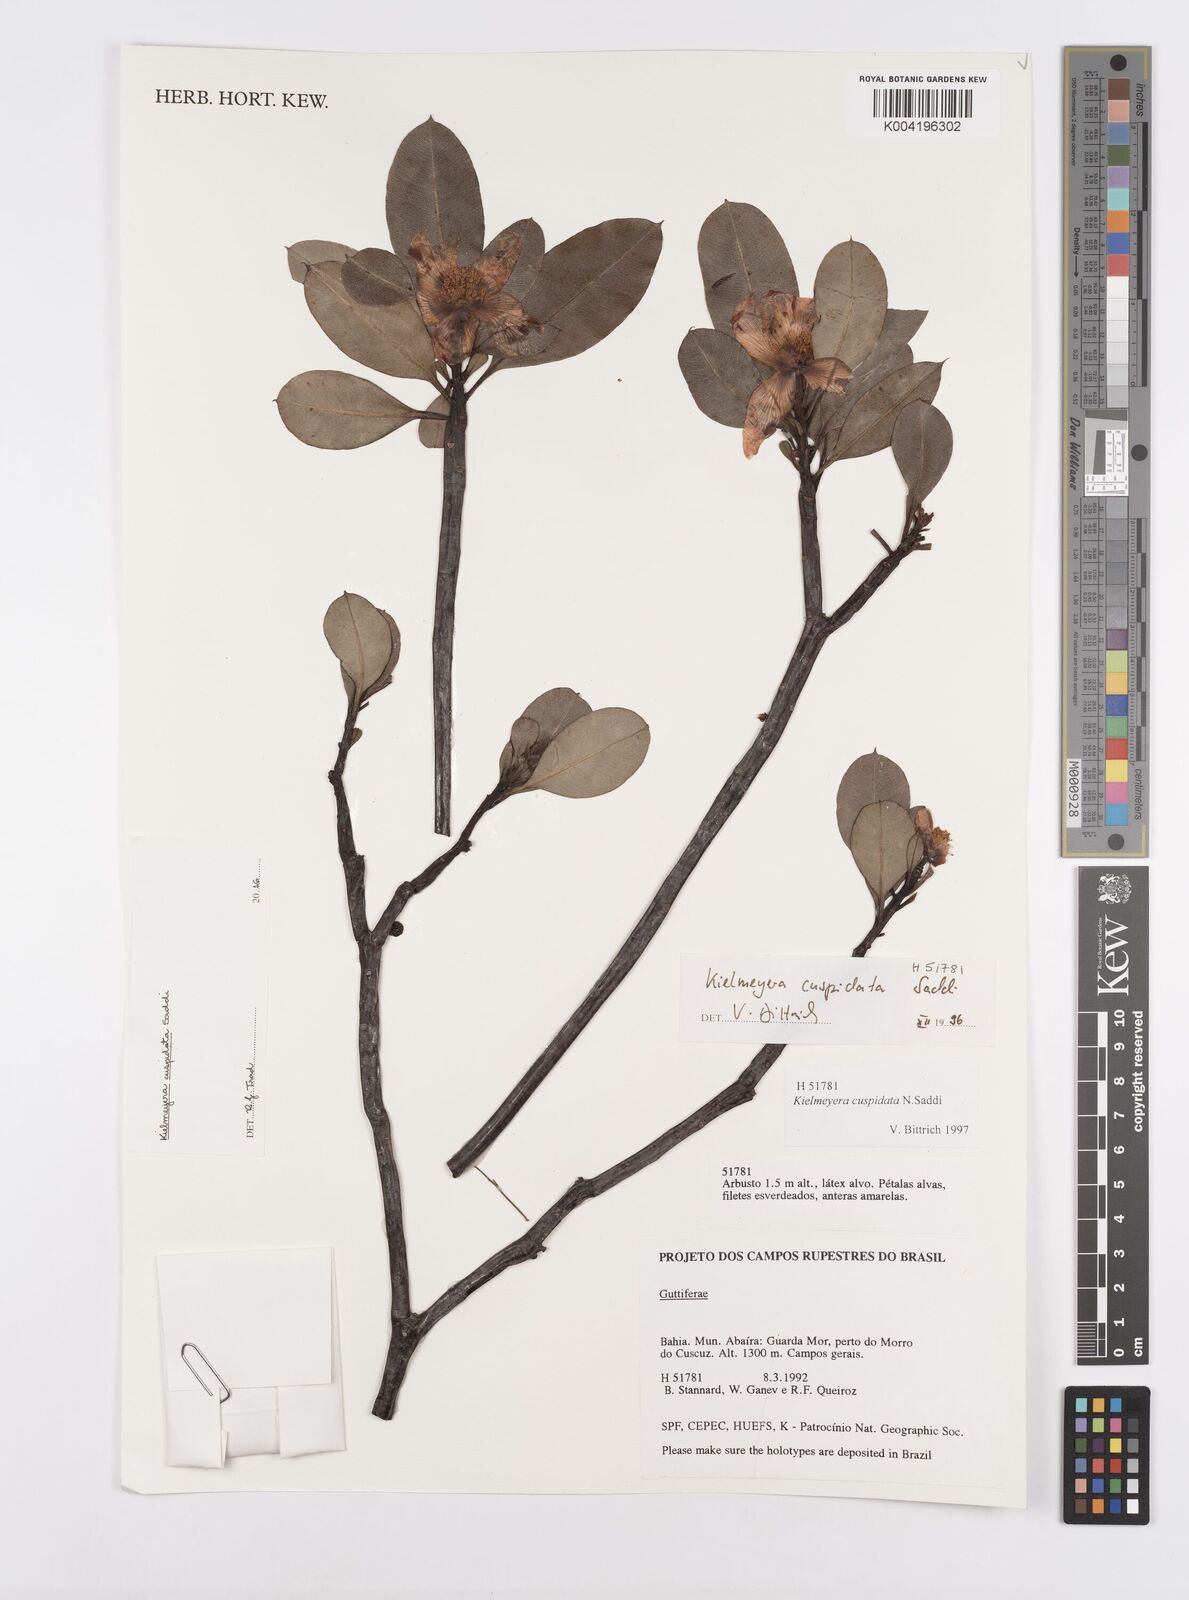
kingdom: Plantae
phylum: Tracheophyta
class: Magnoliopsida
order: Malpighiales
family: Calophyllaceae
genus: Kielmeyera
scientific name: Kielmeyera cuspidata
